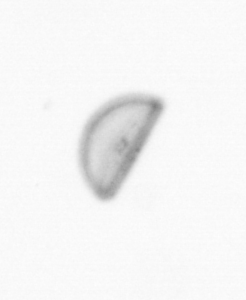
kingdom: Chromista
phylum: Ochrophyta
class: Bacillariophyceae
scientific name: Bacillariophyceae
